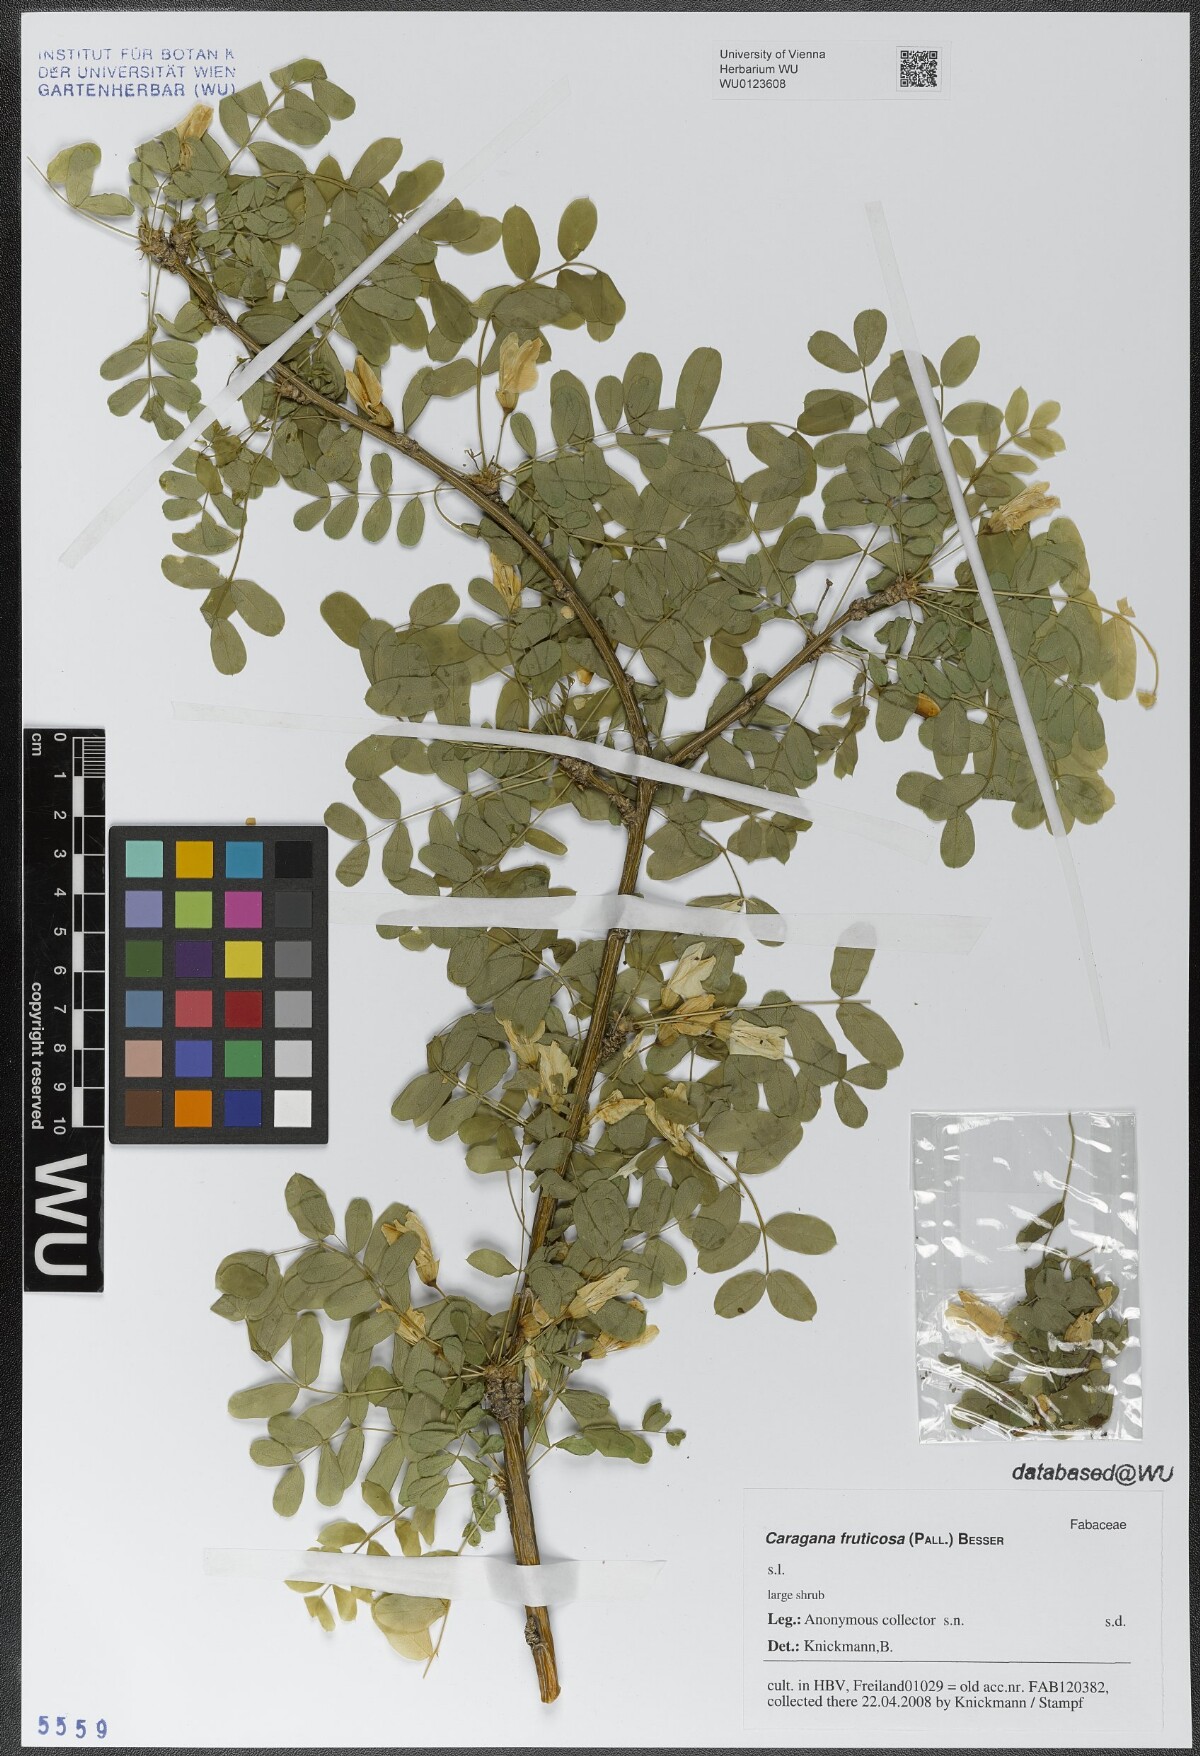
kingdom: Plantae
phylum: Tracheophyta
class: Magnoliopsida
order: Fabales
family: Fabaceae
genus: Caragana
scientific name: Caragana arborescens
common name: Siberian peashrub
